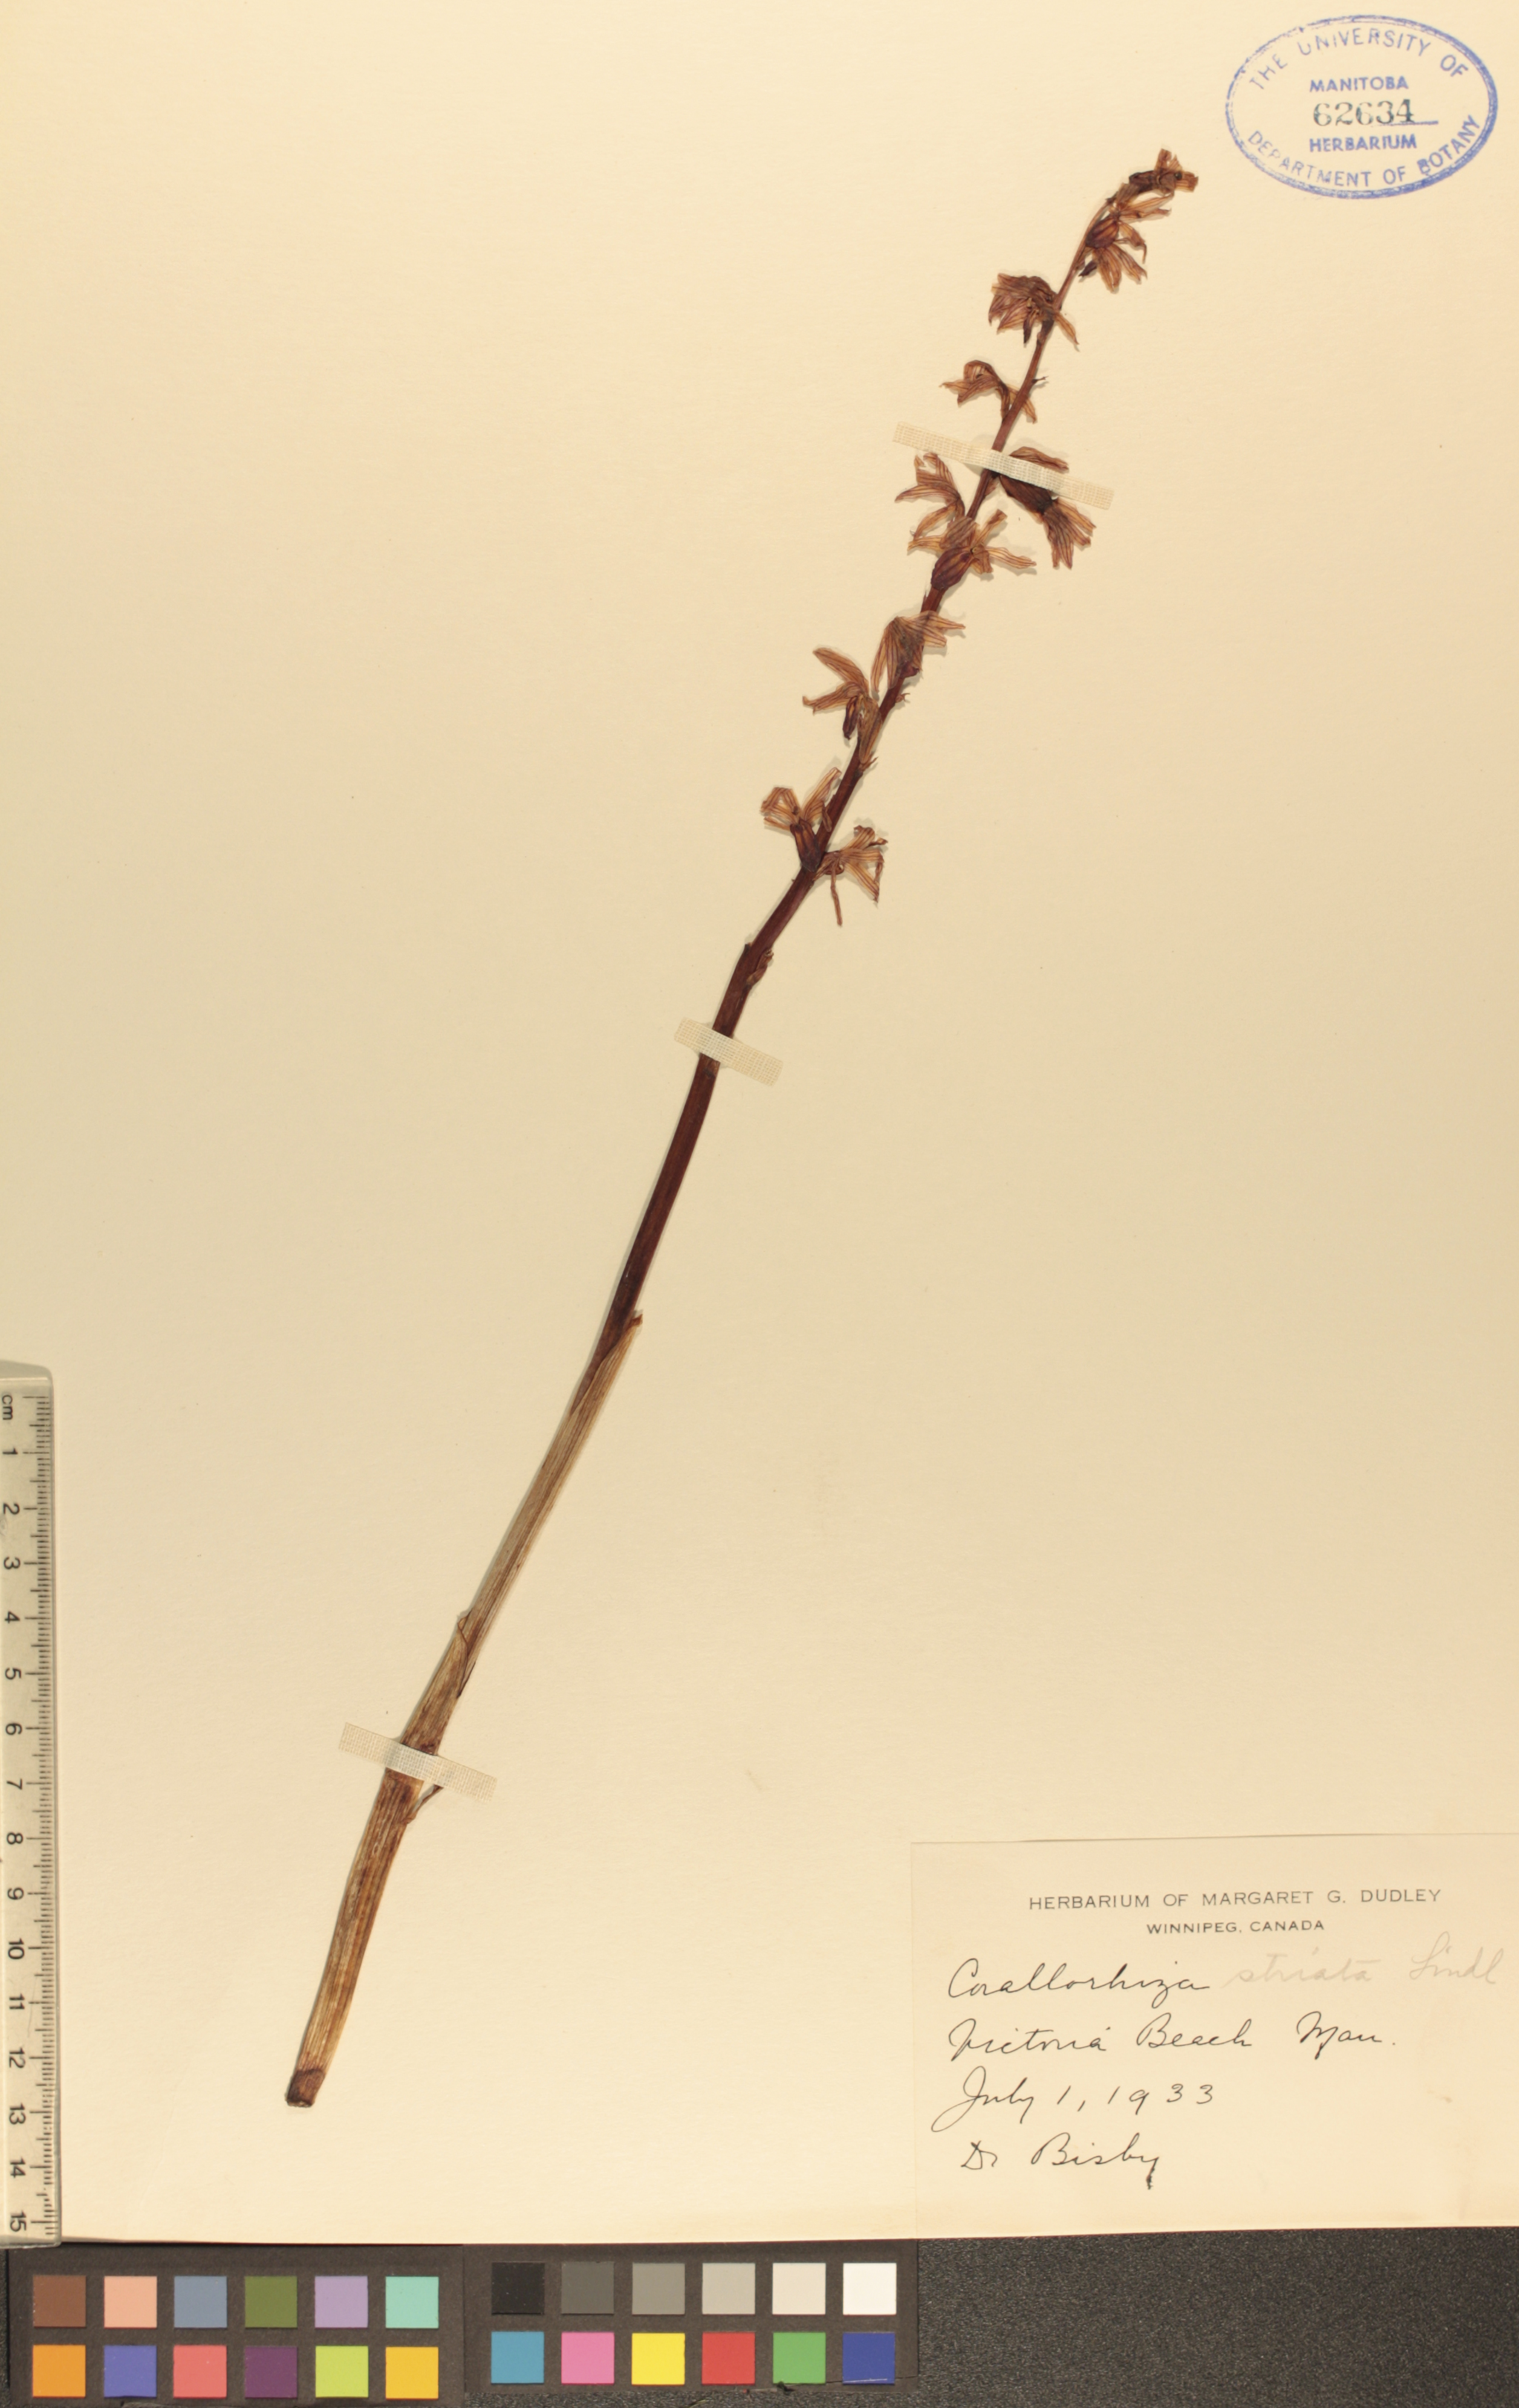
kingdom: Plantae
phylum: Tracheophyta
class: Liliopsida
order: Asparagales
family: Orchidaceae
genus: Corallorhiza
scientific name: Corallorhiza striata
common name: Hooded coralroot
